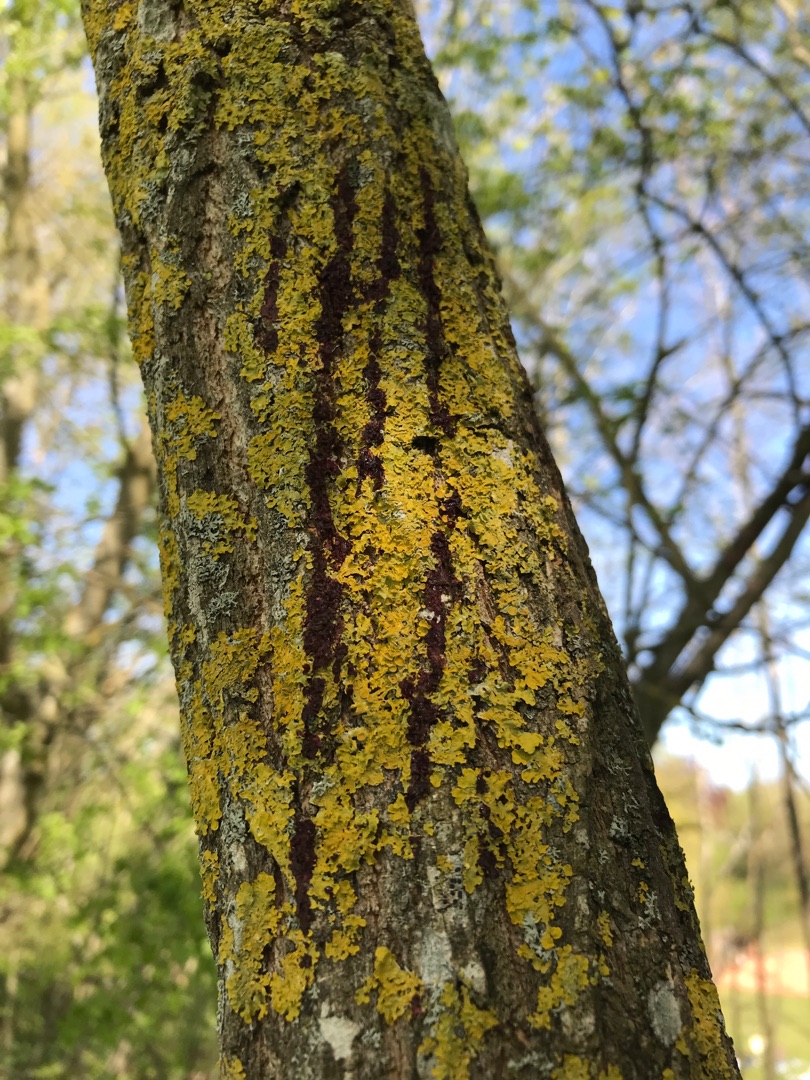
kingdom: Fungi
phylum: Ascomycota
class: Lecanoromycetes
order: Teloschistales
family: Teloschistaceae
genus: Xanthoria
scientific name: Xanthoria parietina
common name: Almindelig væggelav
